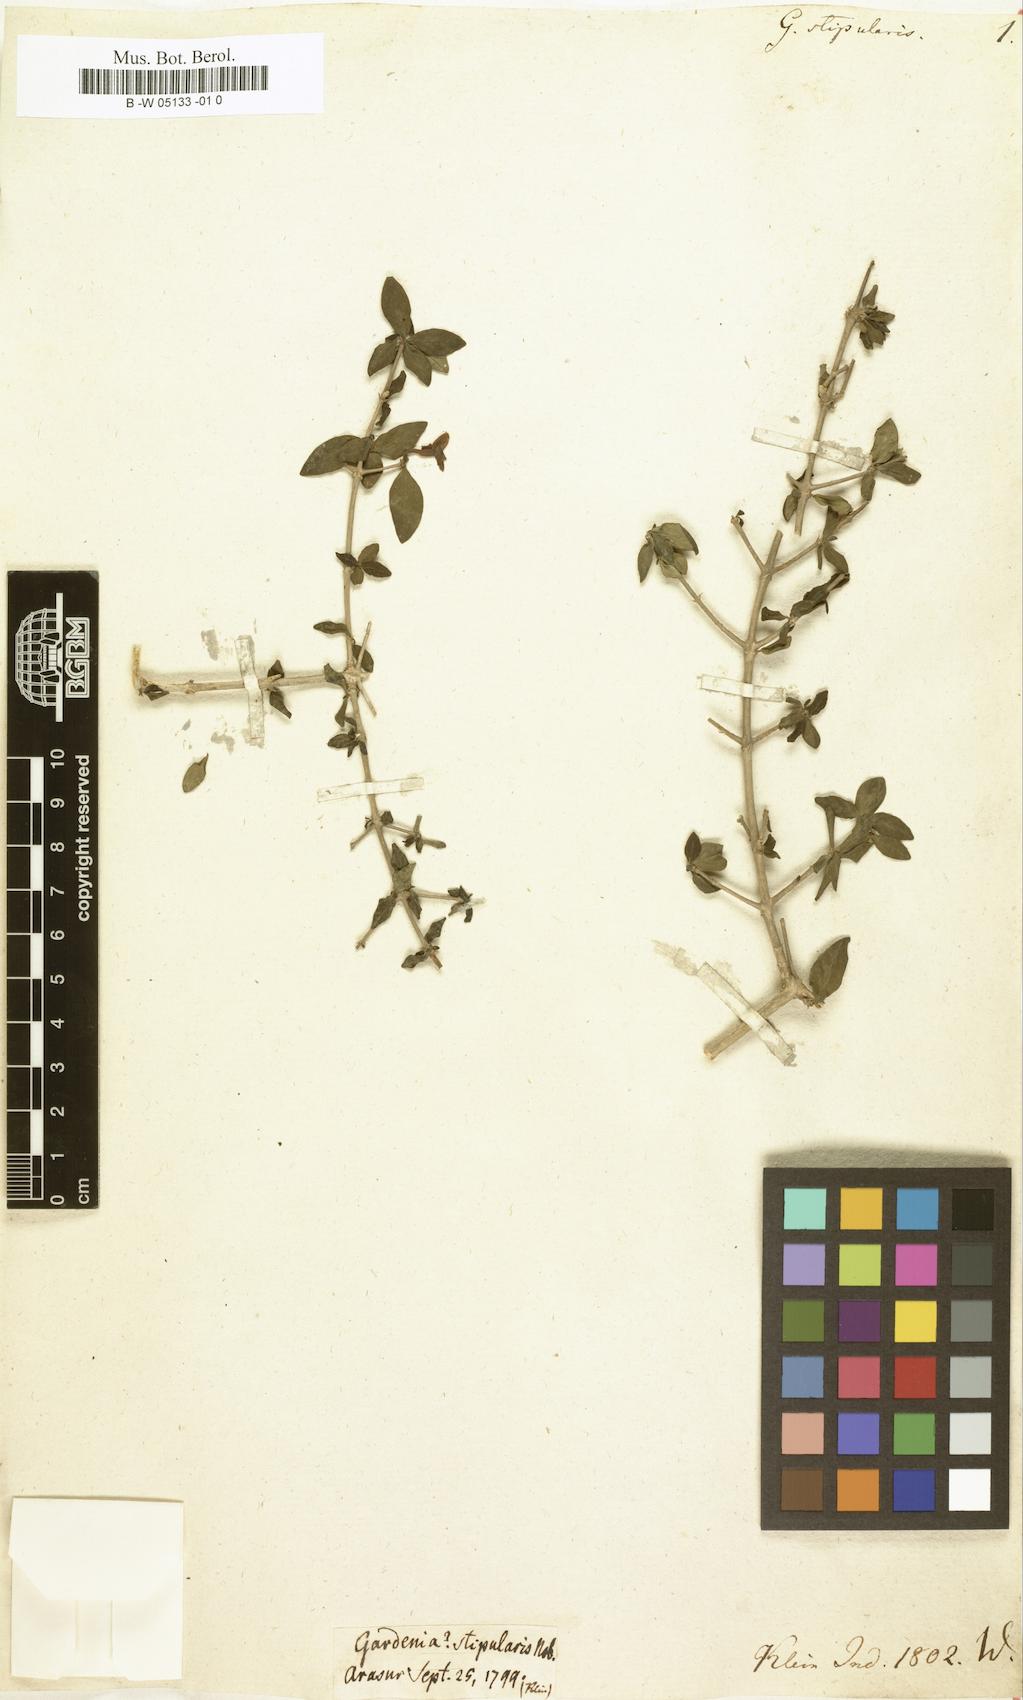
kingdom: Plantae
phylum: Tracheophyta
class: Magnoliopsida
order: Gentianales
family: Rubiaceae
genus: Catunaregam
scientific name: Catunaregam spinosa
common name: Emetic-nut
